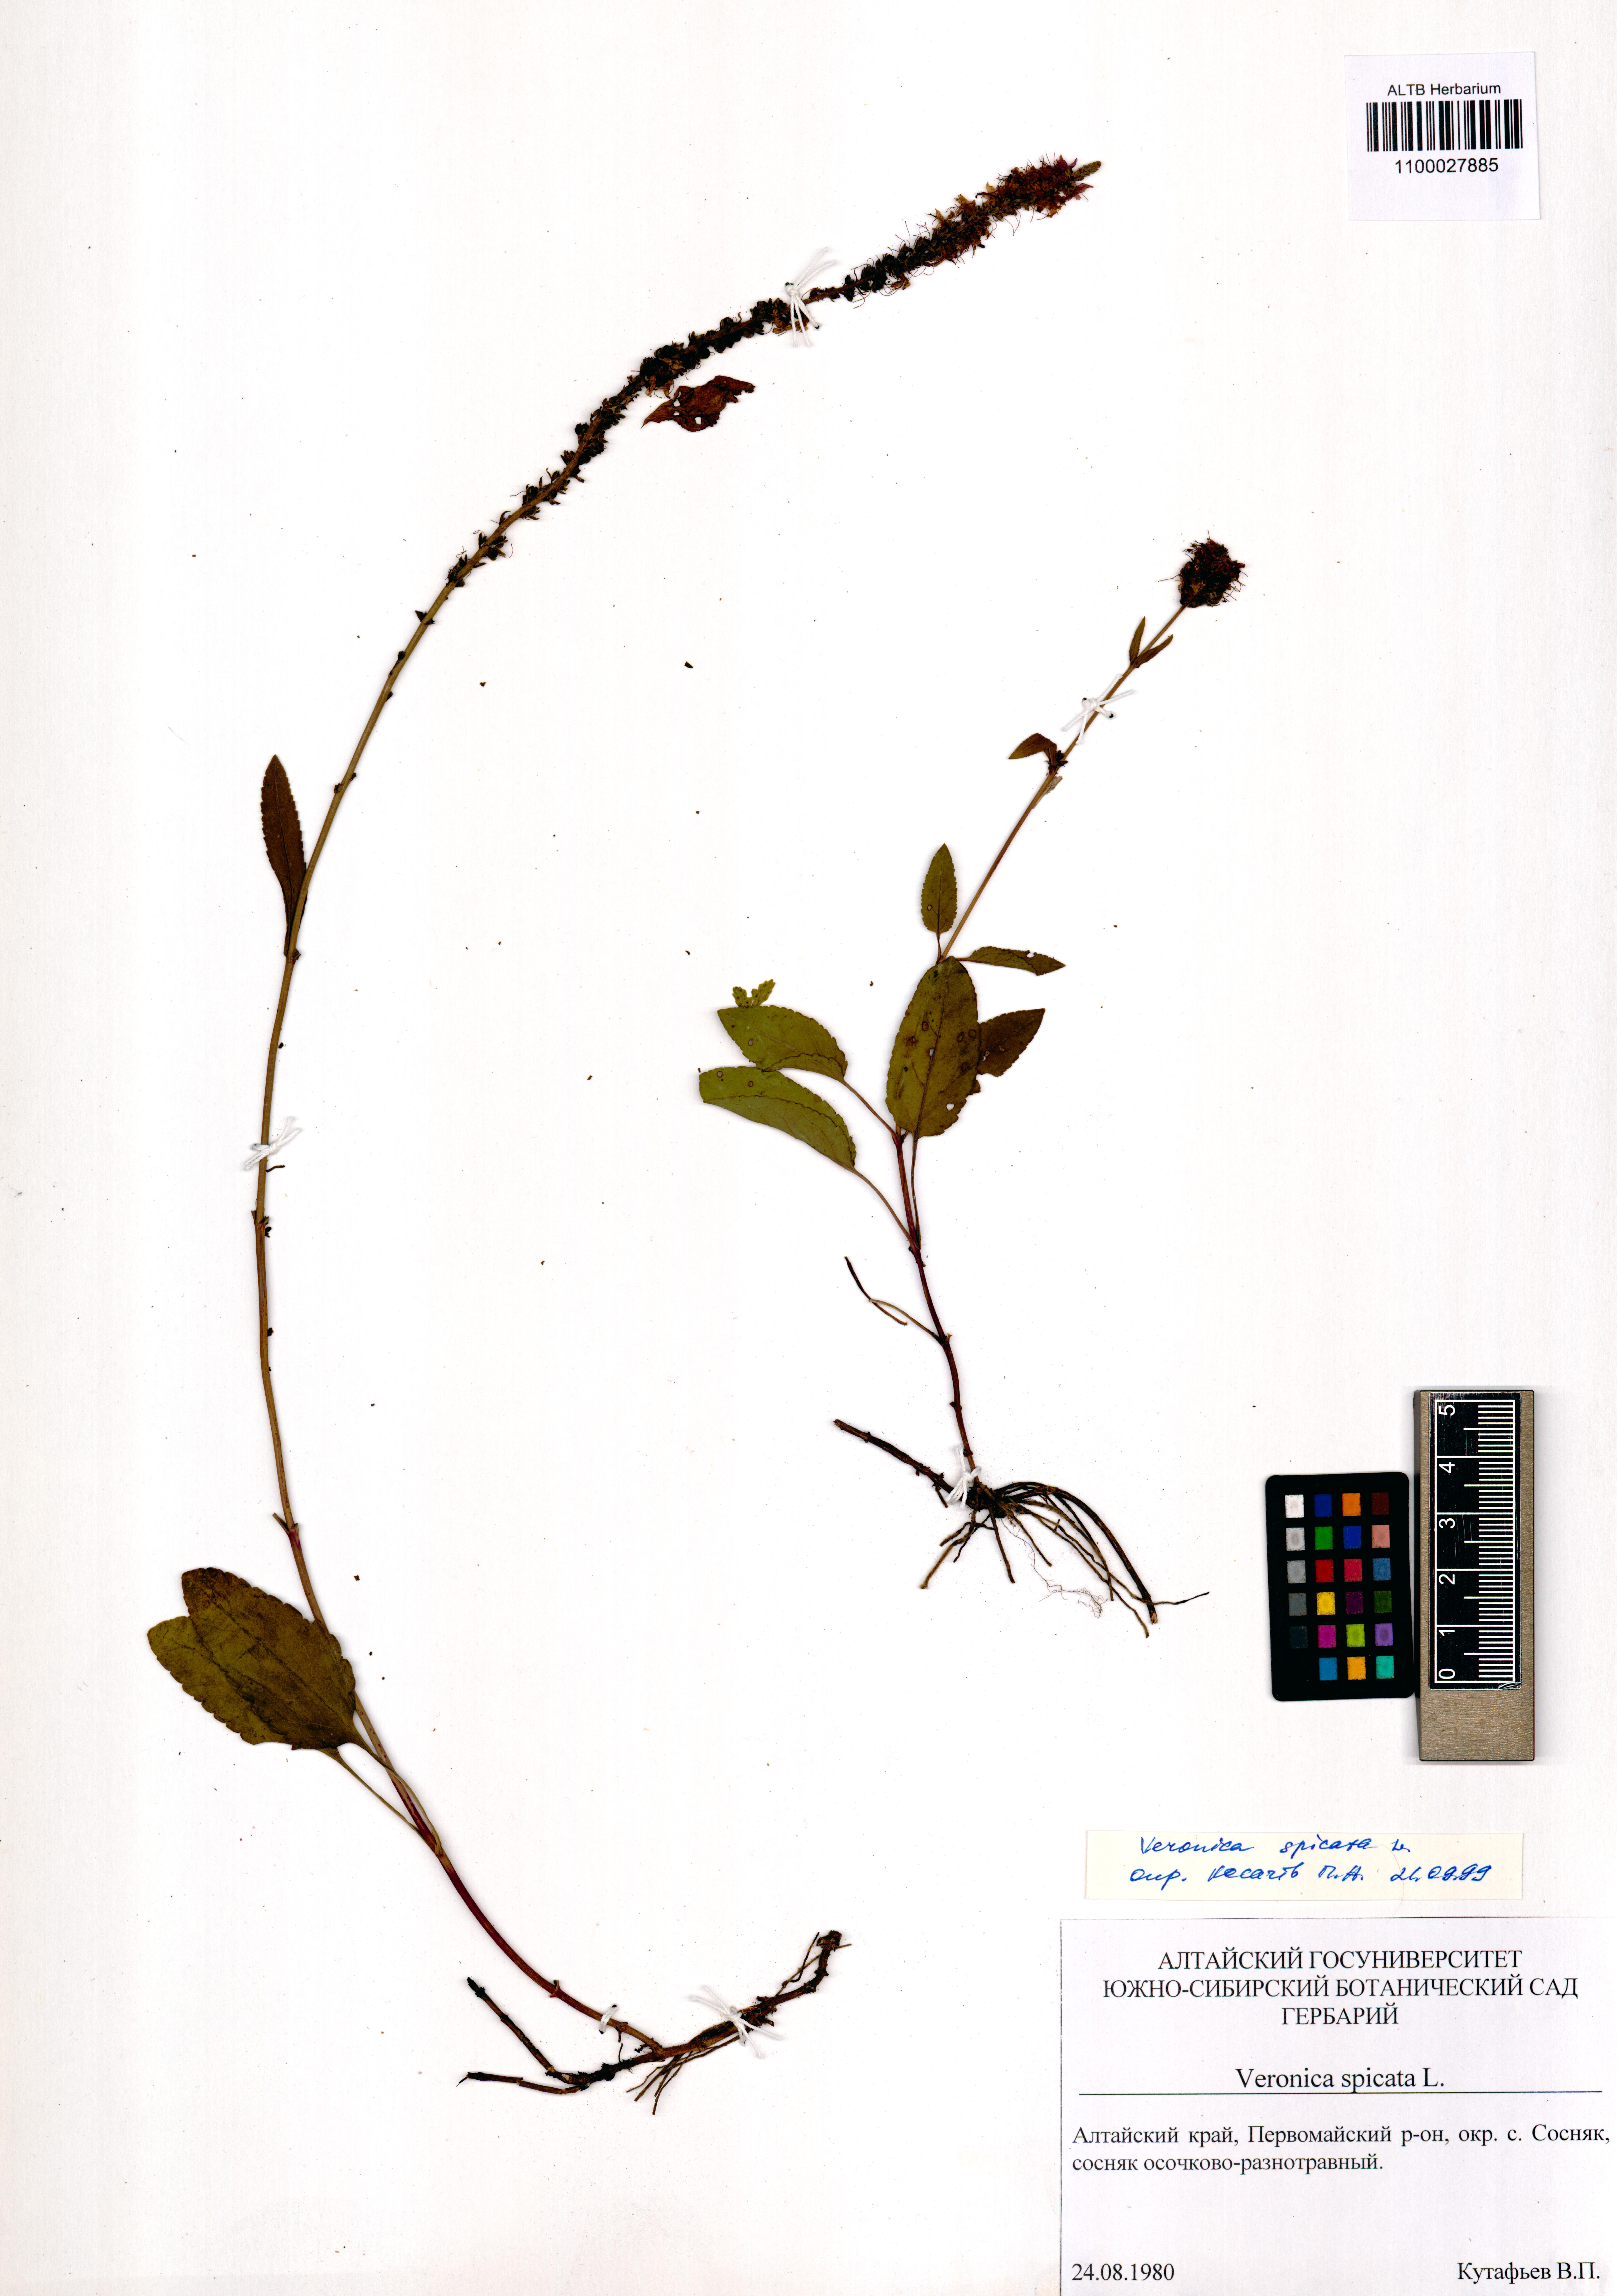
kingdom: Plantae
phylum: Tracheophyta
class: Magnoliopsida
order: Lamiales
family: Plantaginaceae
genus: Veronica
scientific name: Veronica spicata
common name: Spiked speedwell
